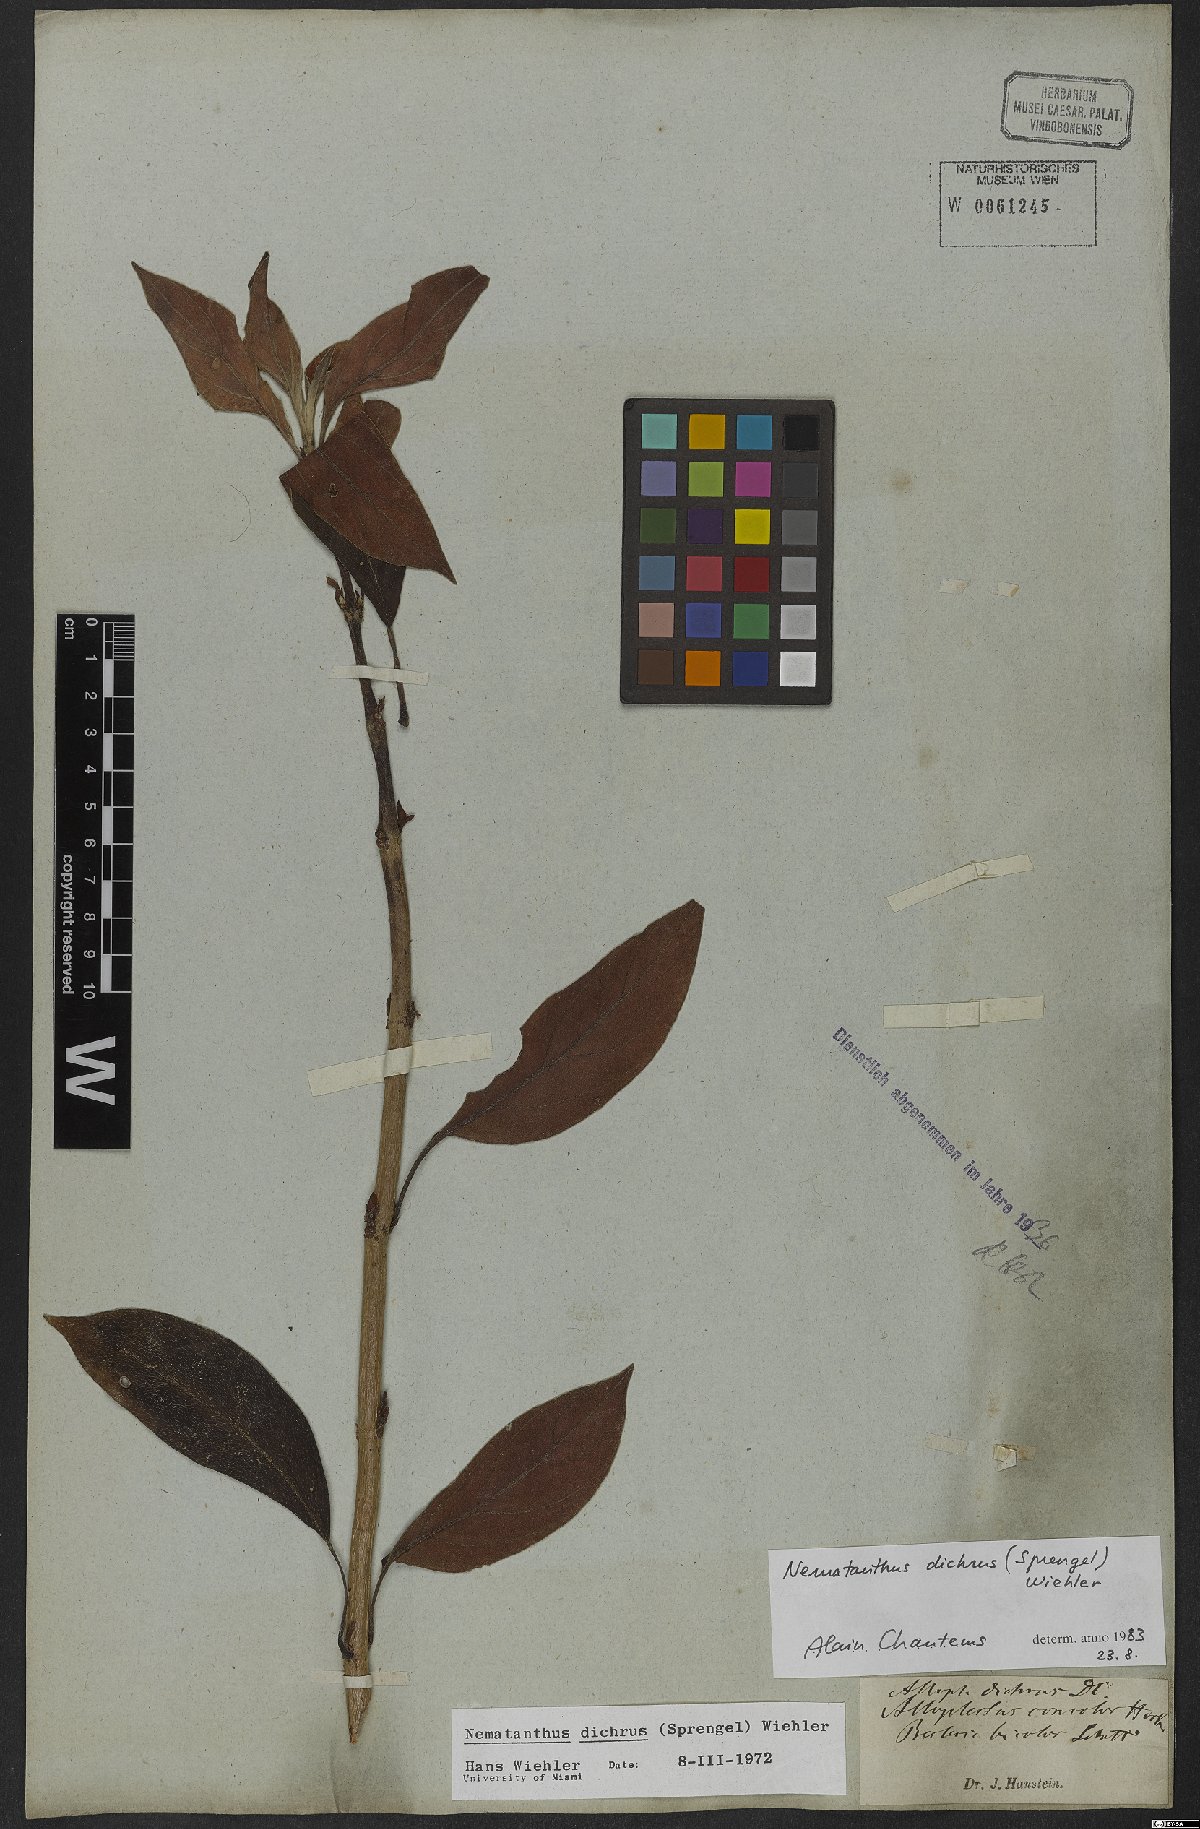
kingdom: Plantae
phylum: Tracheophyta
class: Magnoliopsida
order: Lamiales
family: Gesneriaceae
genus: Nematanthus
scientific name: Nematanthus lanceolatus
